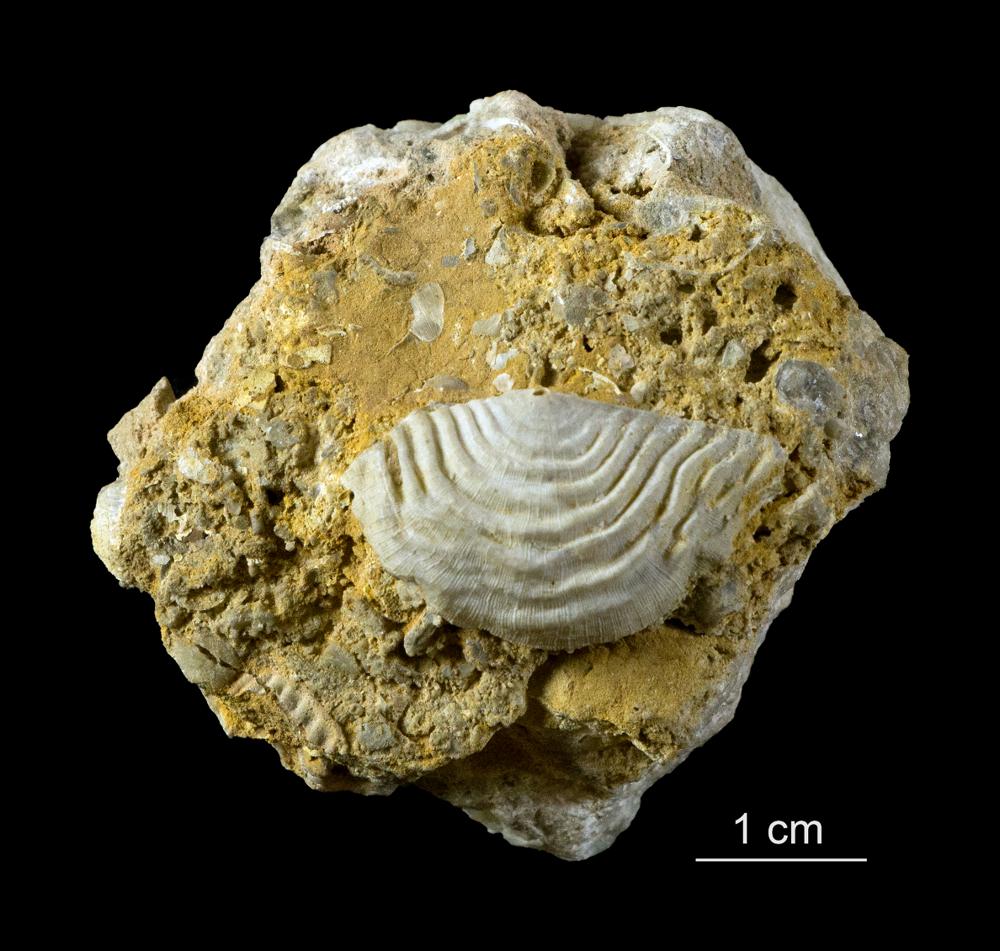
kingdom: Animalia
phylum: Brachiopoda
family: Leptaenidae
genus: Septomena
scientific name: Septomena Leptaena juvenilis
